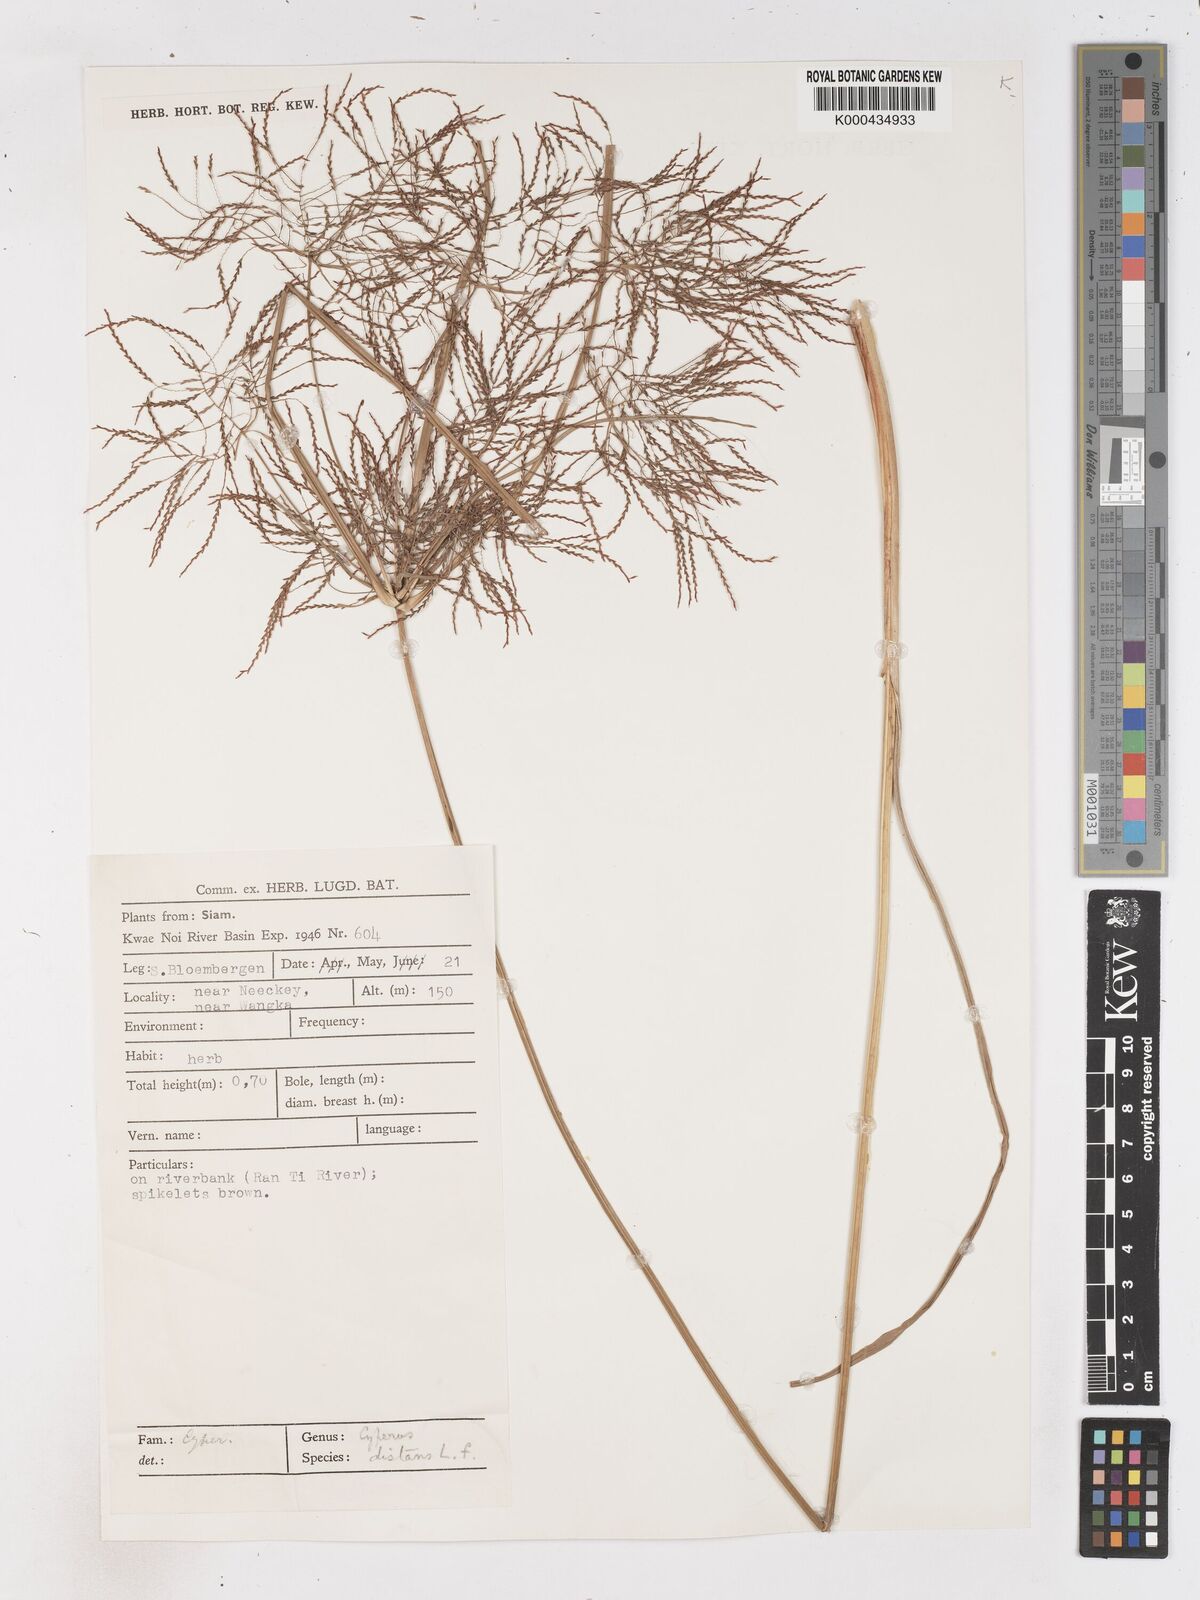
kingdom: Plantae
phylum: Tracheophyta
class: Liliopsida
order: Poales
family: Cyperaceae
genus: Cyperus
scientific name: Cyperus distans
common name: Slender cyperus
